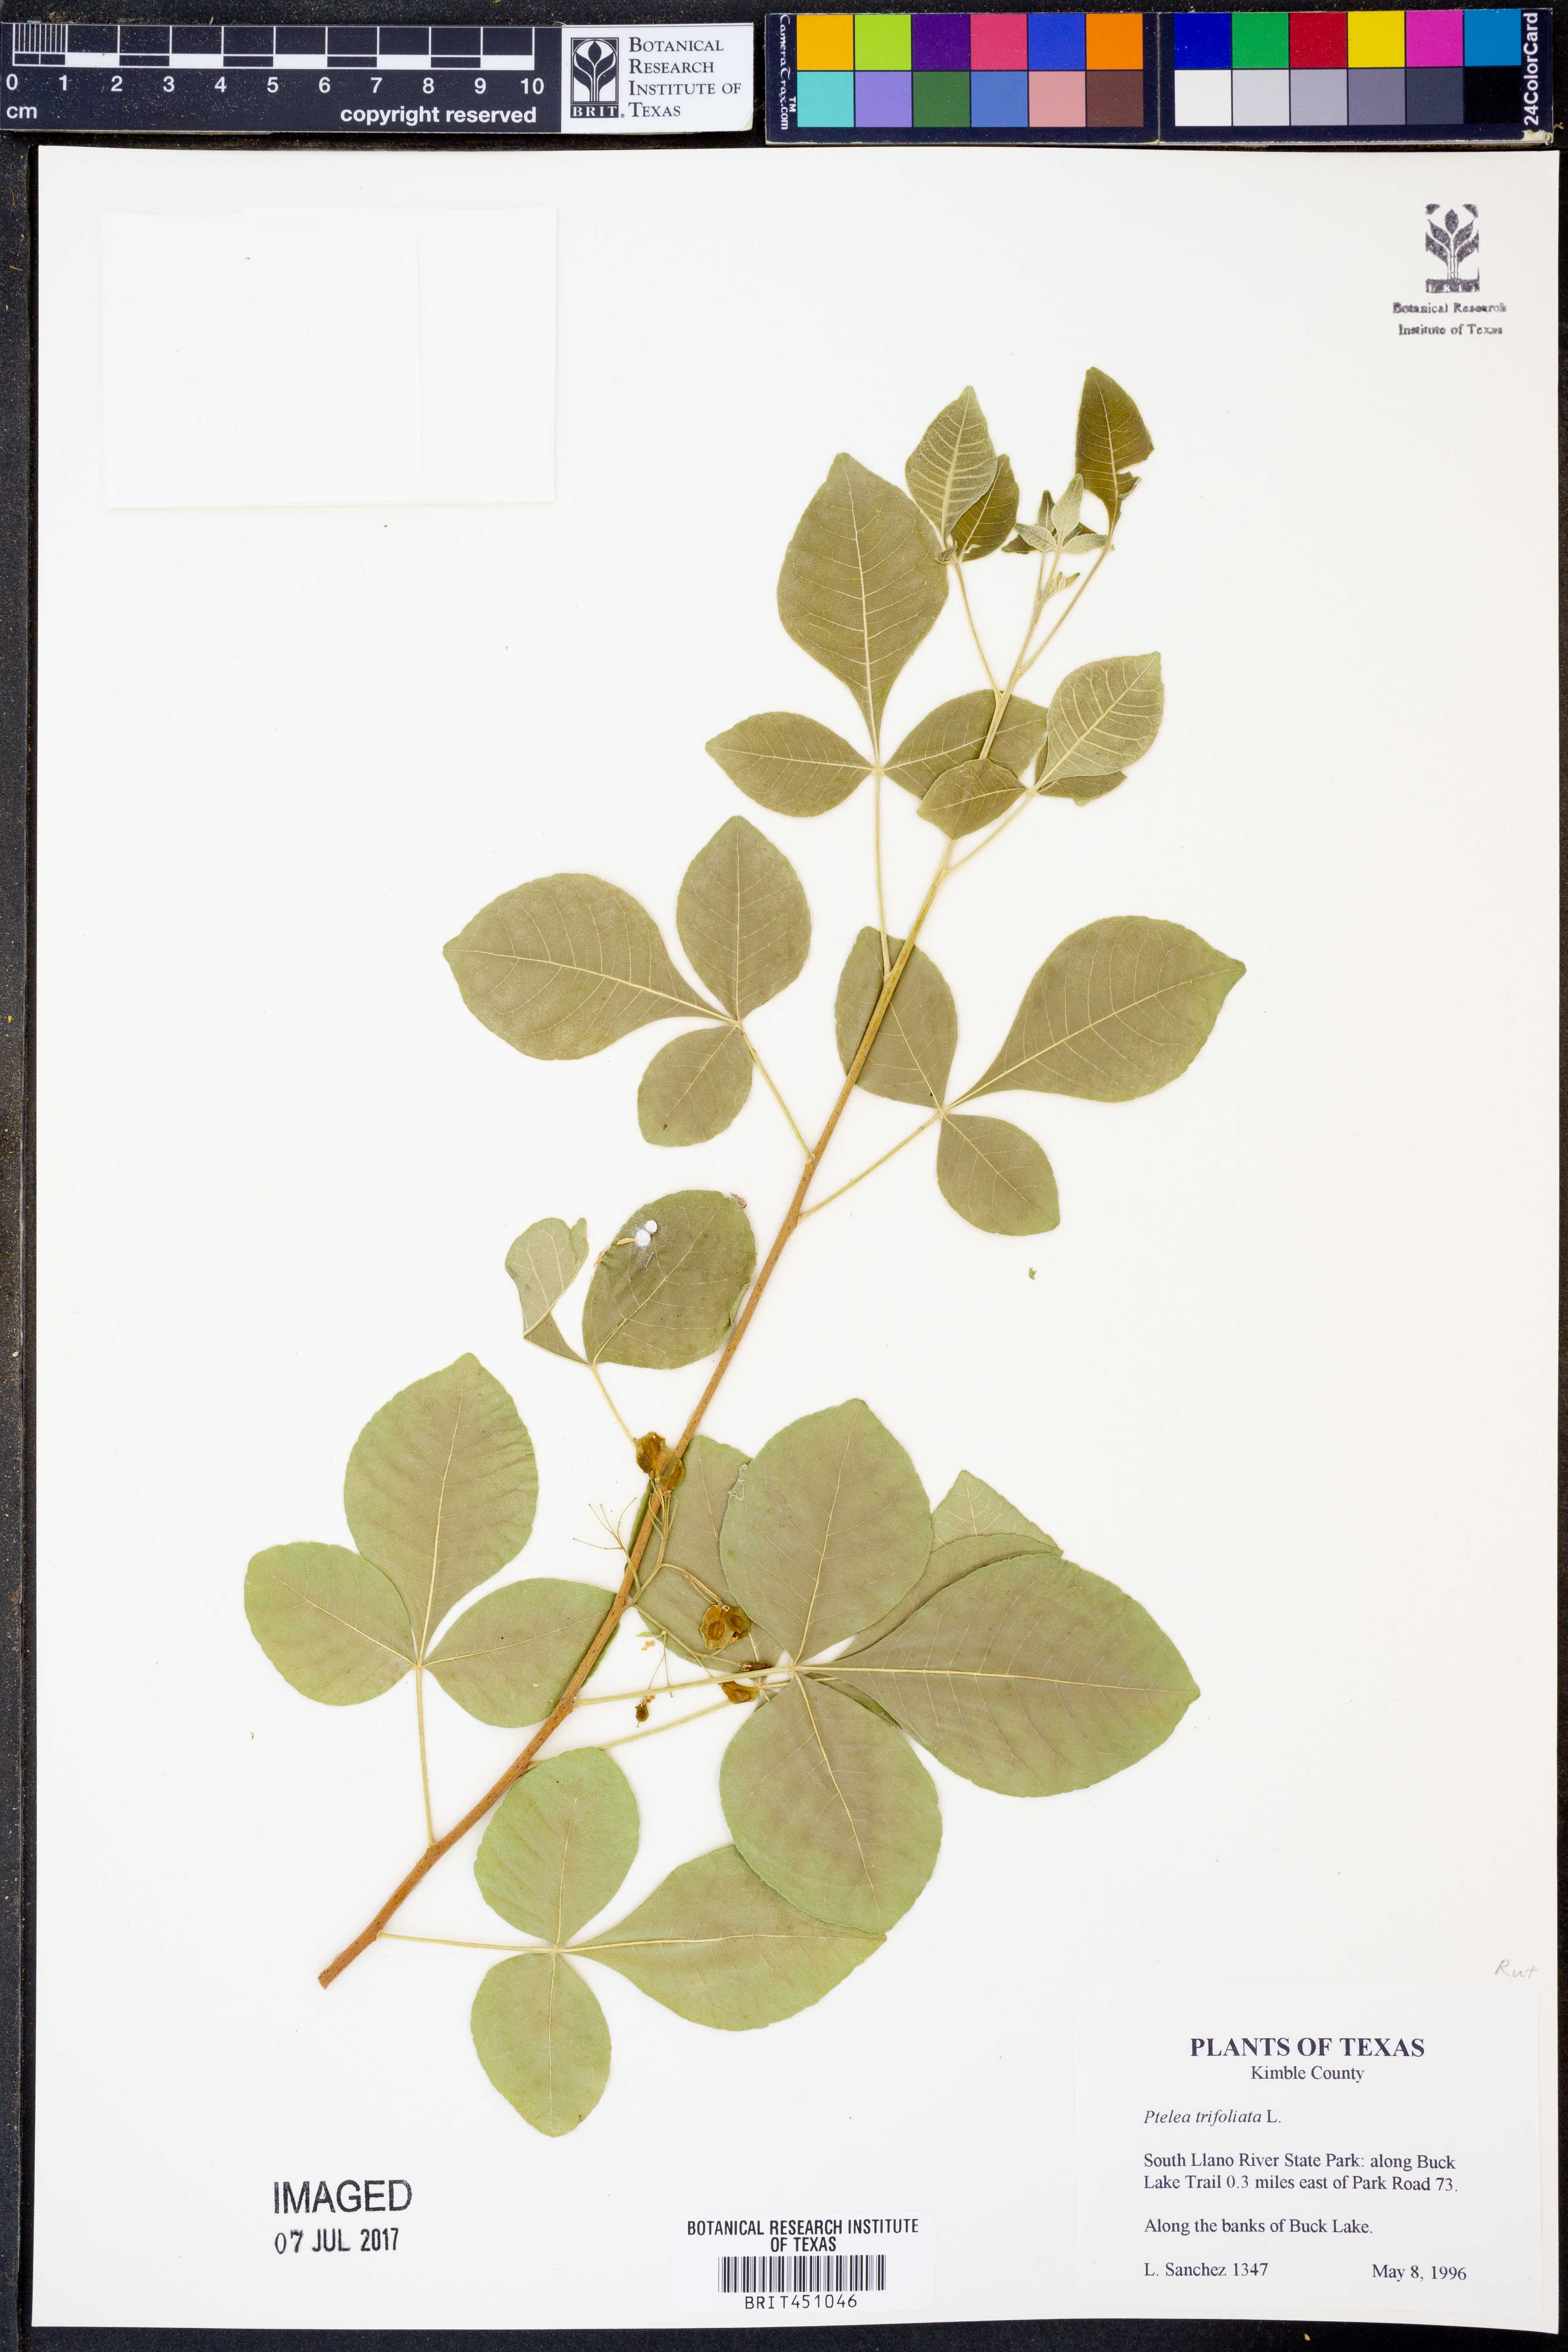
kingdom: Plantae
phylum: Tracheophyta
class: Magnoliopsida
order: Sapindales
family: Rutaceae
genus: Ptelea
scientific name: Ptelea trifoliata
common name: Common hop-tree
